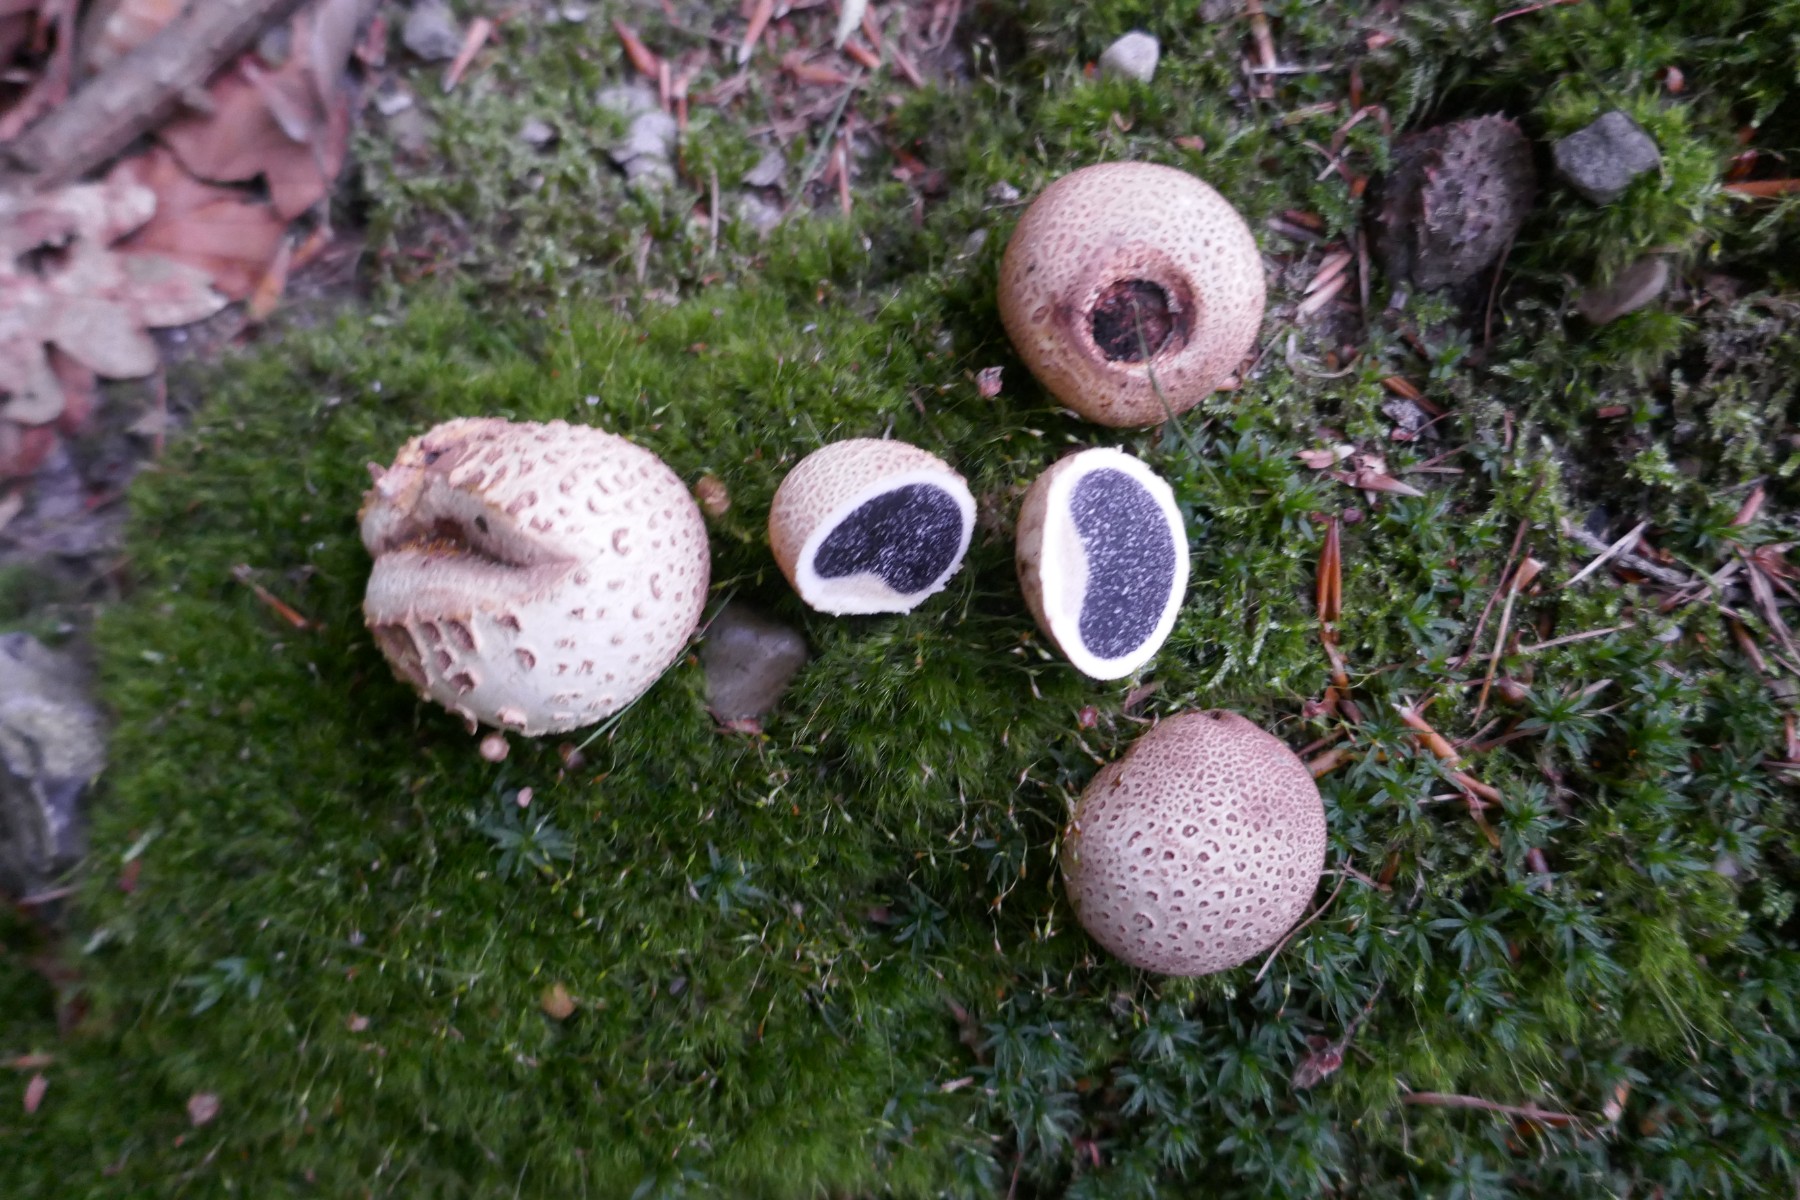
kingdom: Fungi
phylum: Basidiomycota
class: Agaricomycetes
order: Boletales
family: Sclerodermataceae
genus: Scleroderma
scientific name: Scleroderma citrinum
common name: almindelig bruskbold
